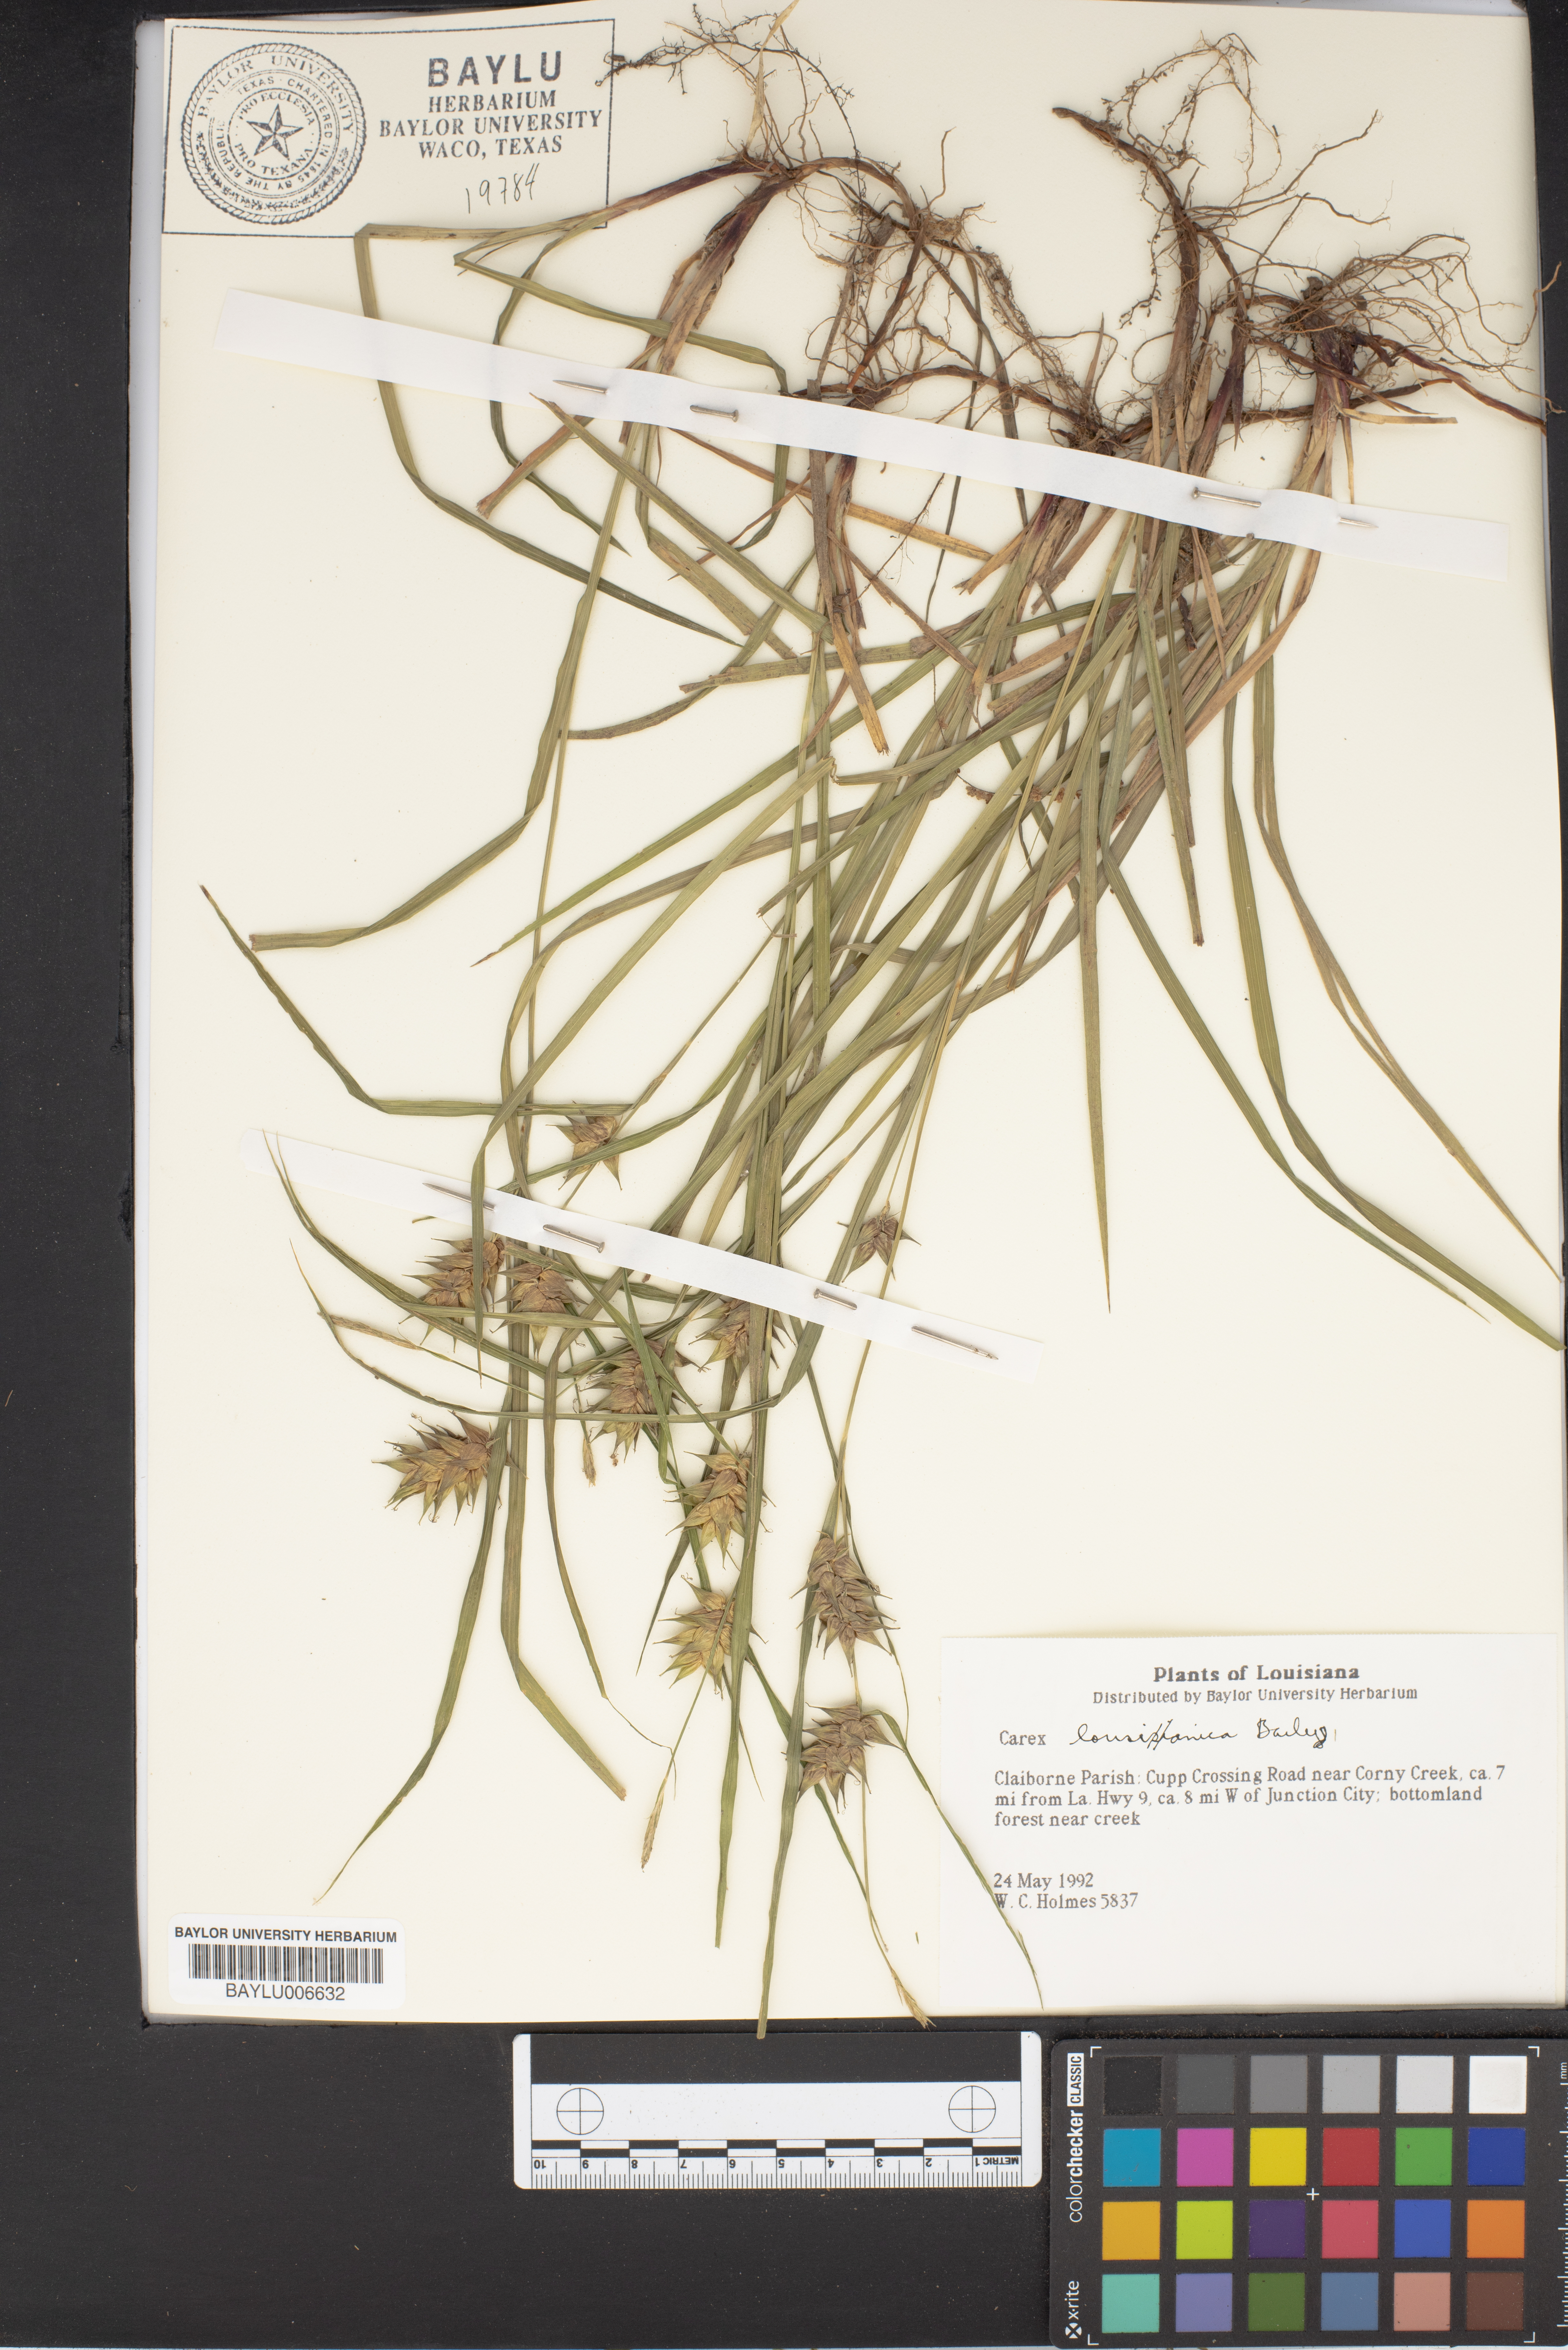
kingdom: Plantae
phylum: Tracheophyta
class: Liliopsida
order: Poales
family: Cyperaceae
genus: Carex
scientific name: Carex louisianica
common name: Louisiana sedge
